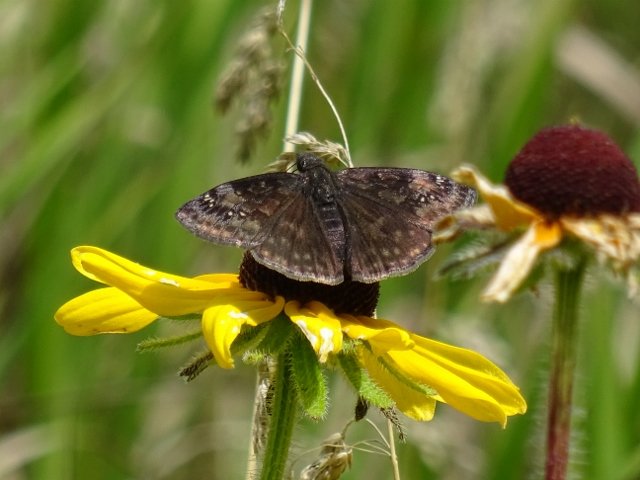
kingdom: Animalia
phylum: Arthropoda
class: Insecta
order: Lepidoptera
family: Hesperiidae
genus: Gesta
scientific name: Gesta
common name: Wild Indigo Duskywing
